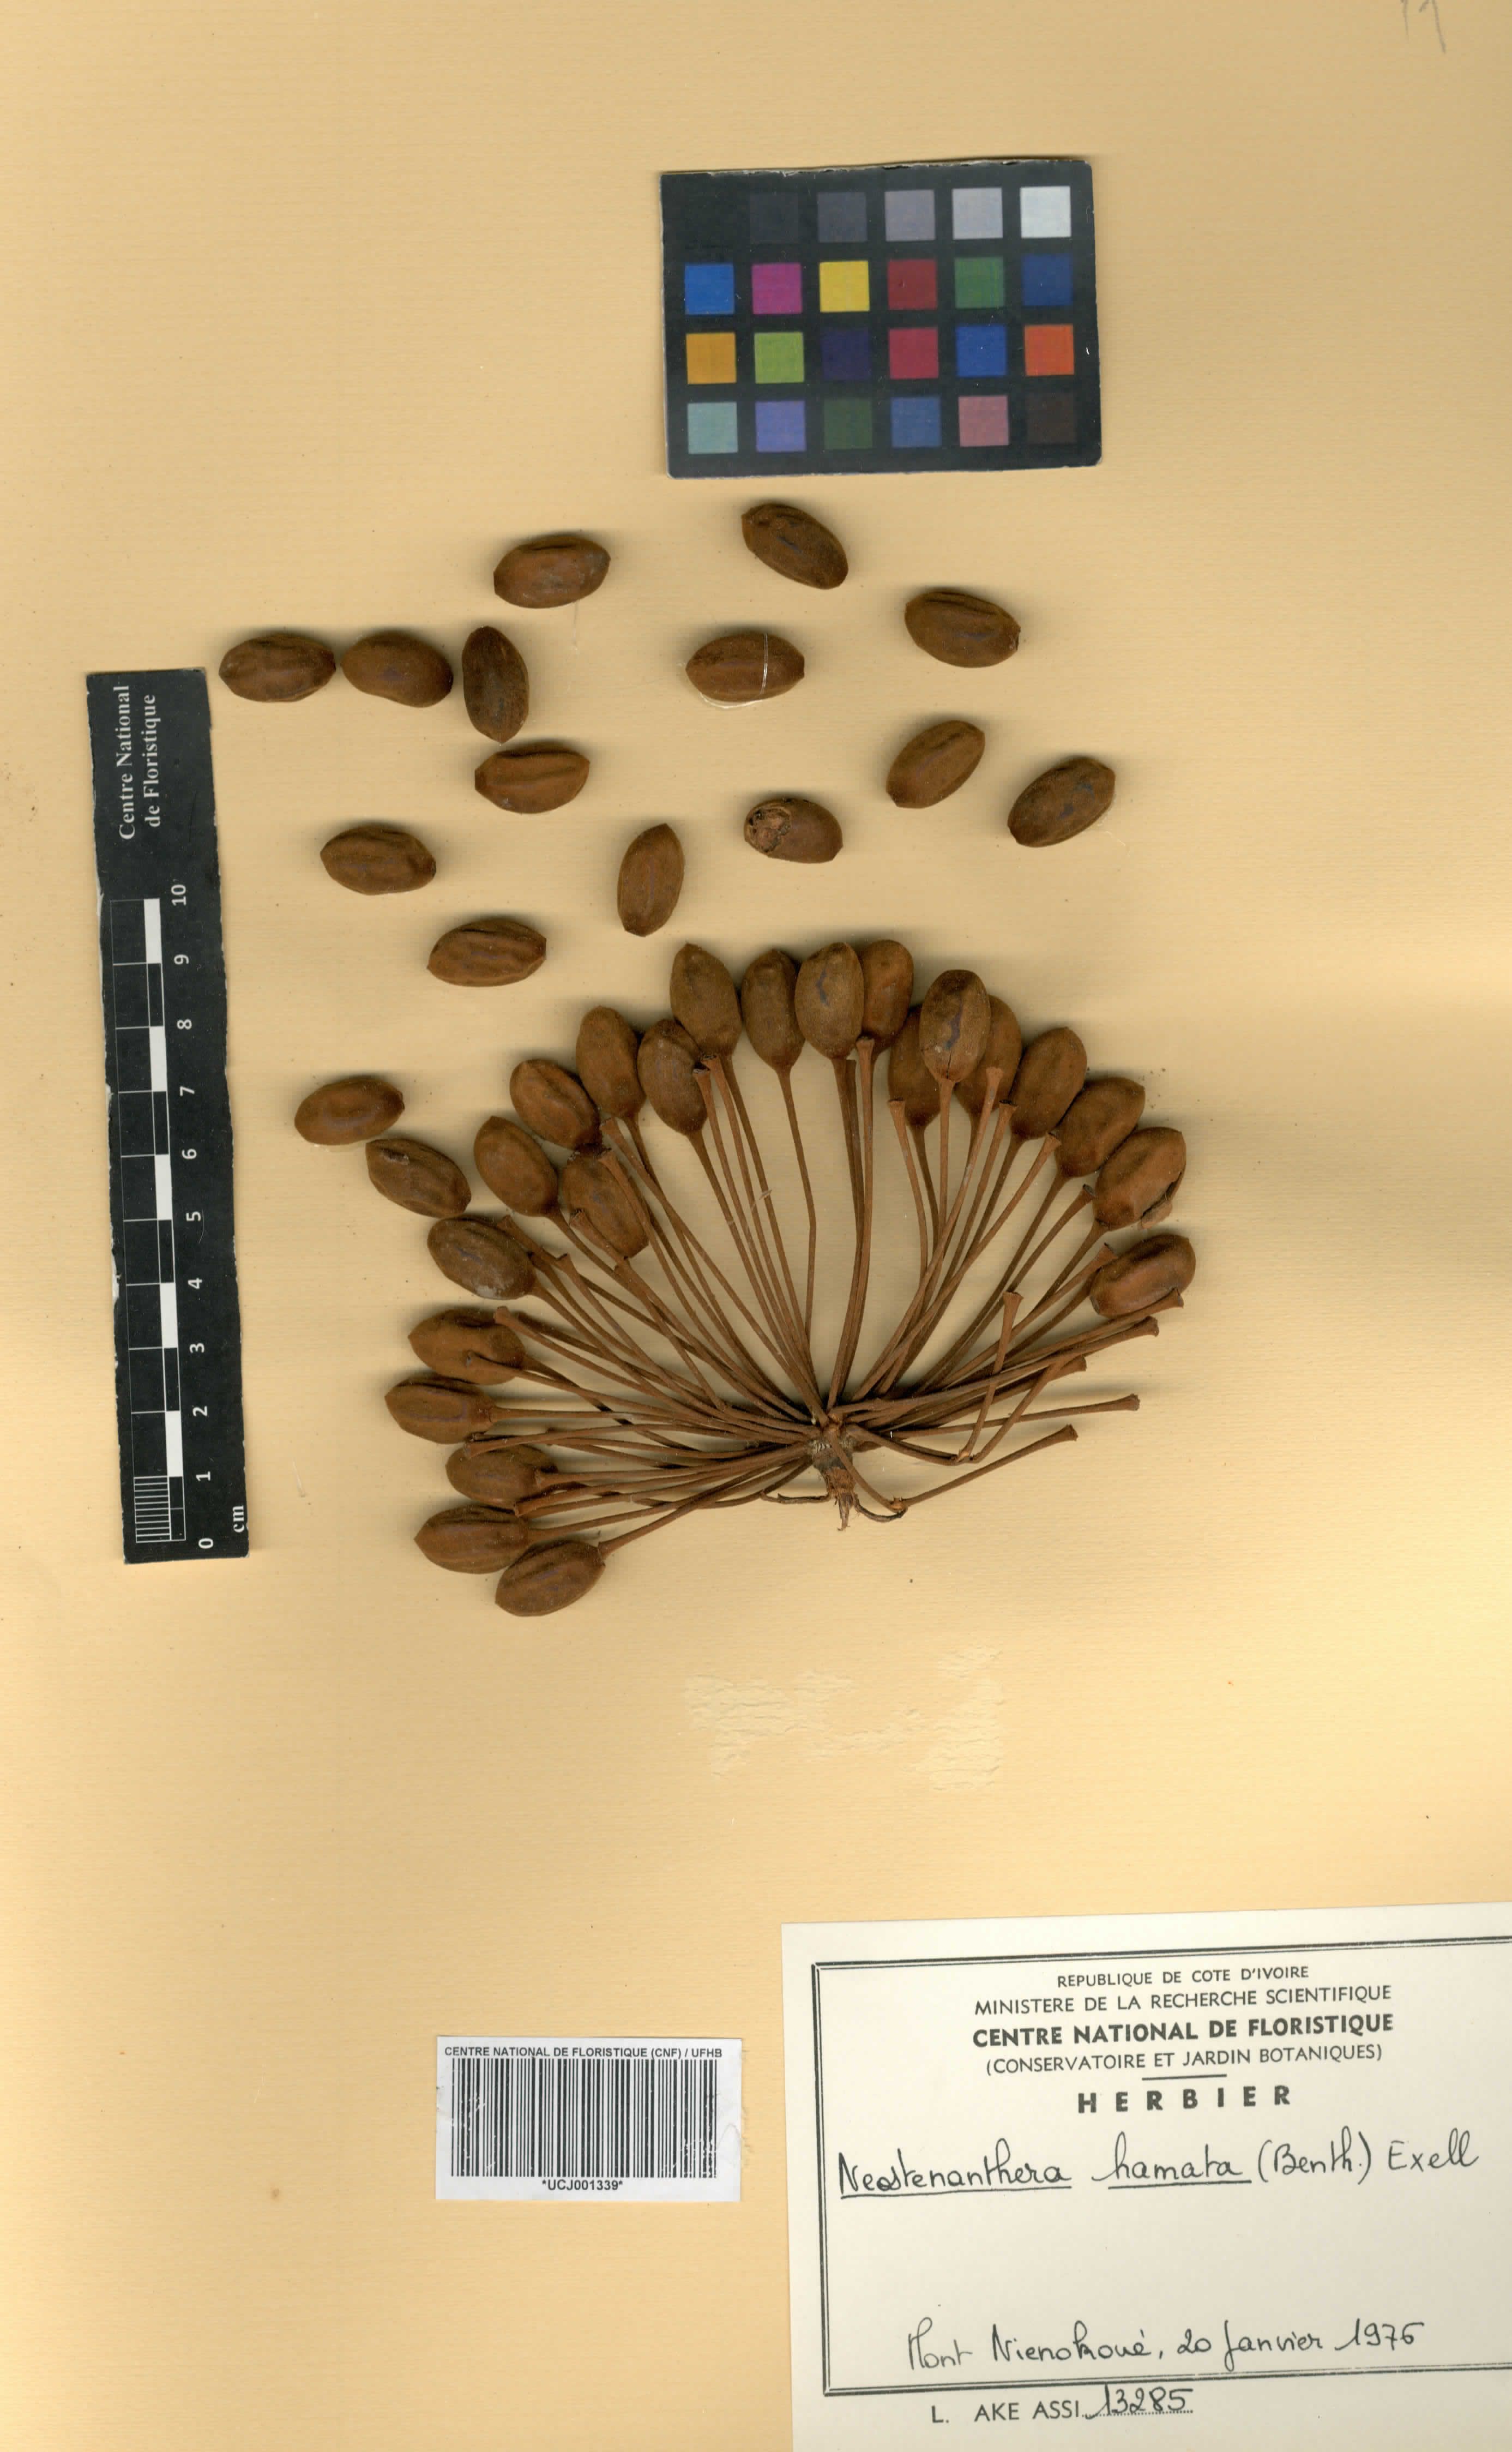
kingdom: Plantae
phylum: Tracheophyta
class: Magnoliopsida
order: Magnoliales
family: Annonaceae
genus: Neostenanthera
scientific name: Neostenanthera hamata
